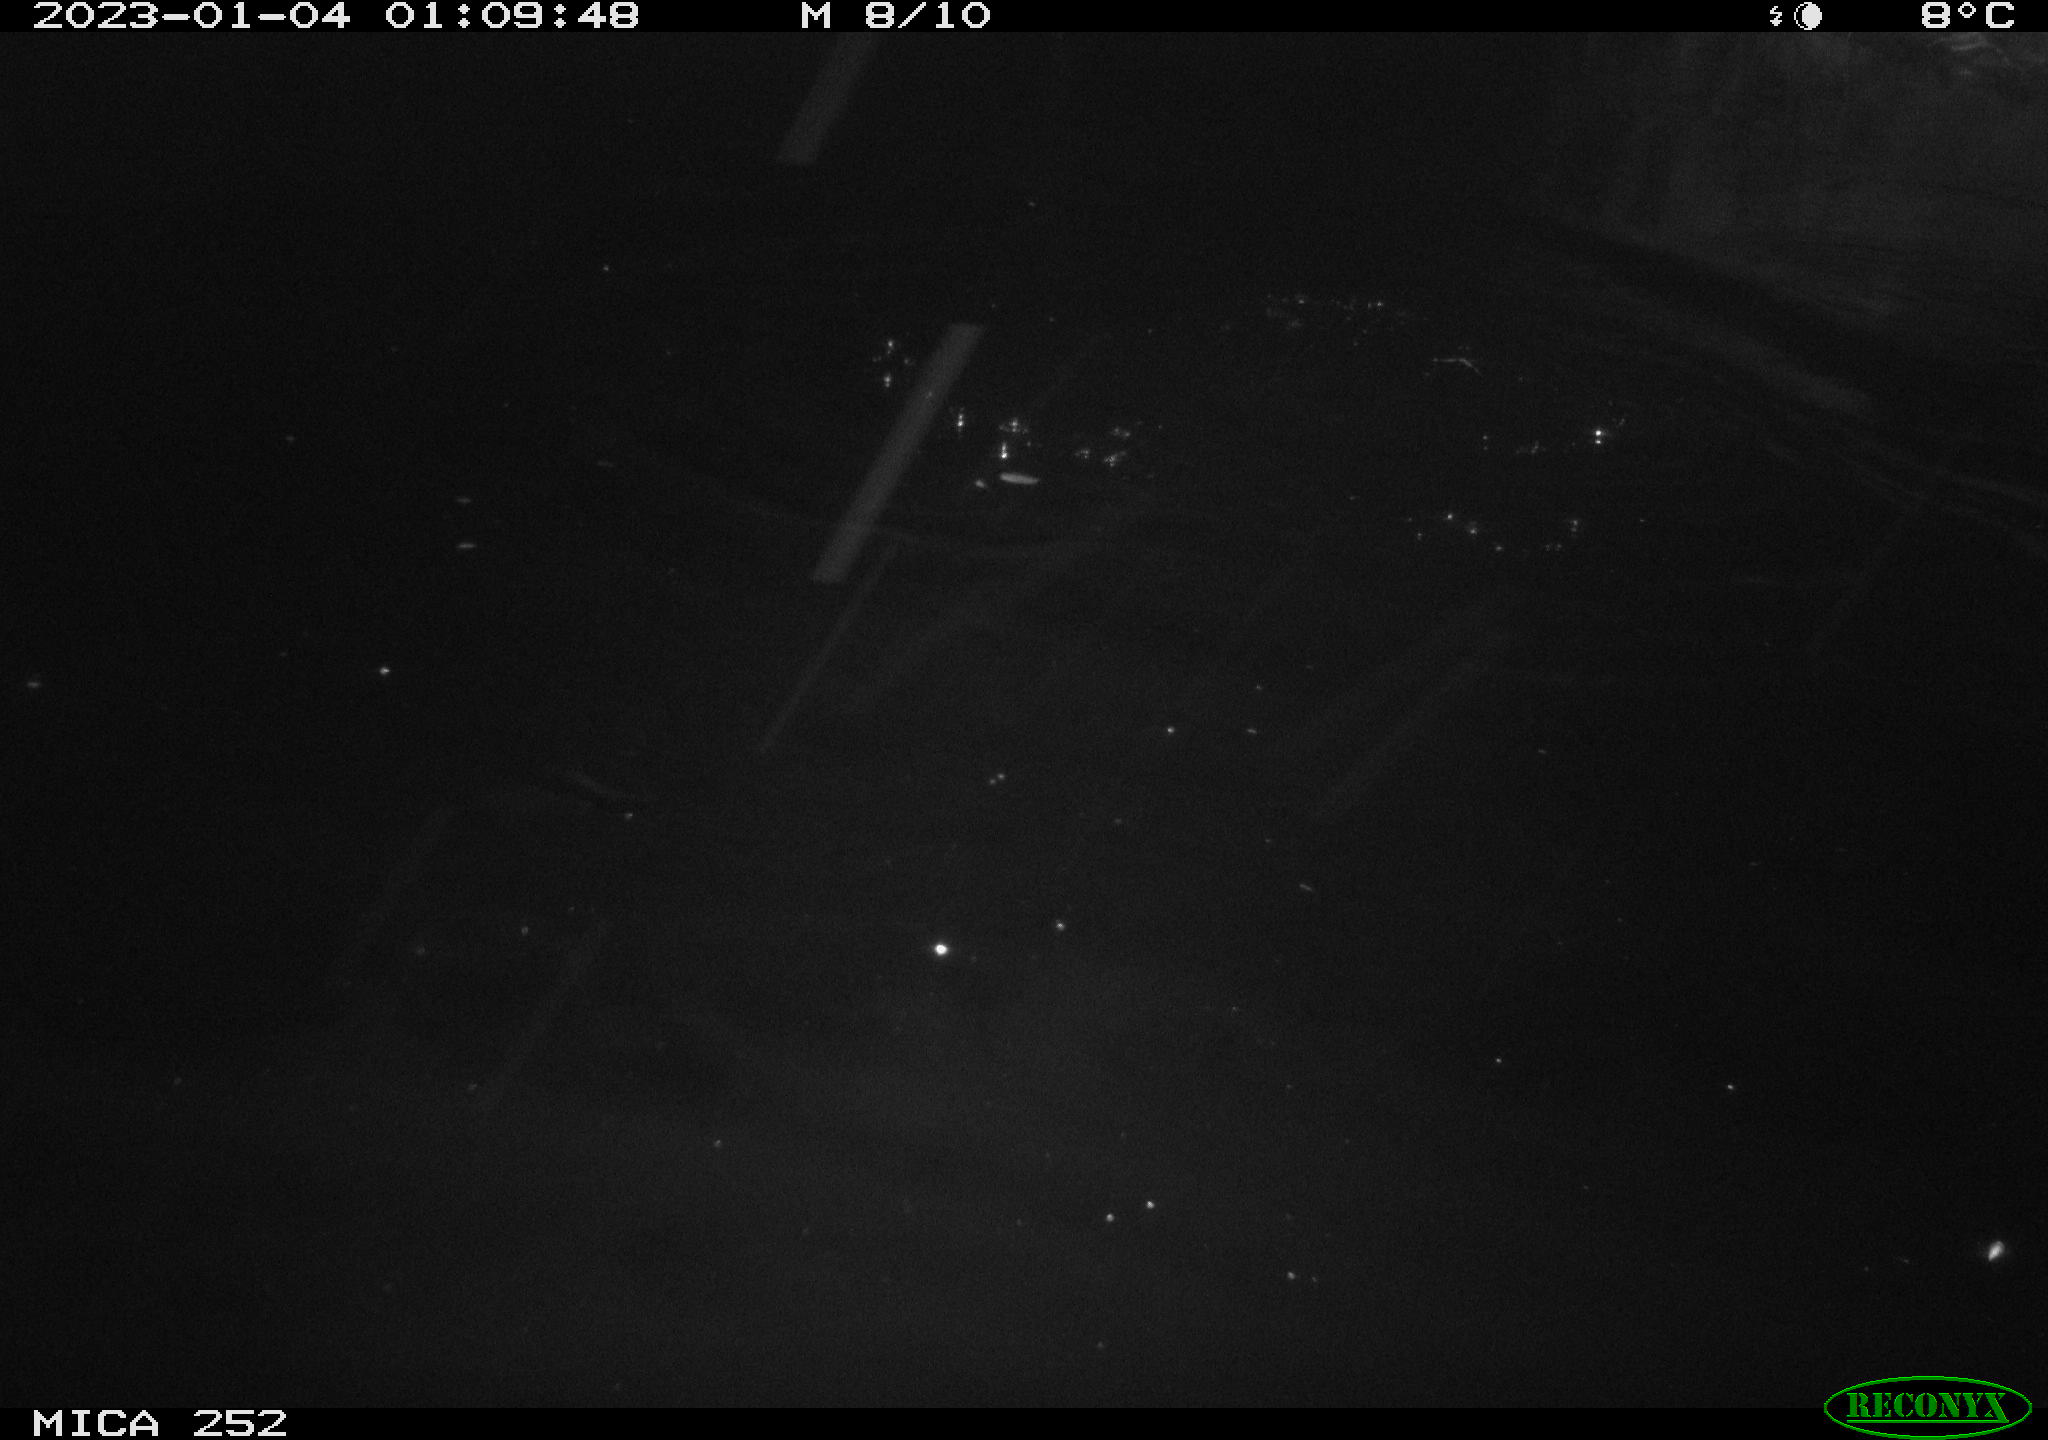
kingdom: Animalia
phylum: Chordata
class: Mammalia
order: Rodentia
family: Castoridae
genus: Castor
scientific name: Castor fiber
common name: Eurasian beaver
